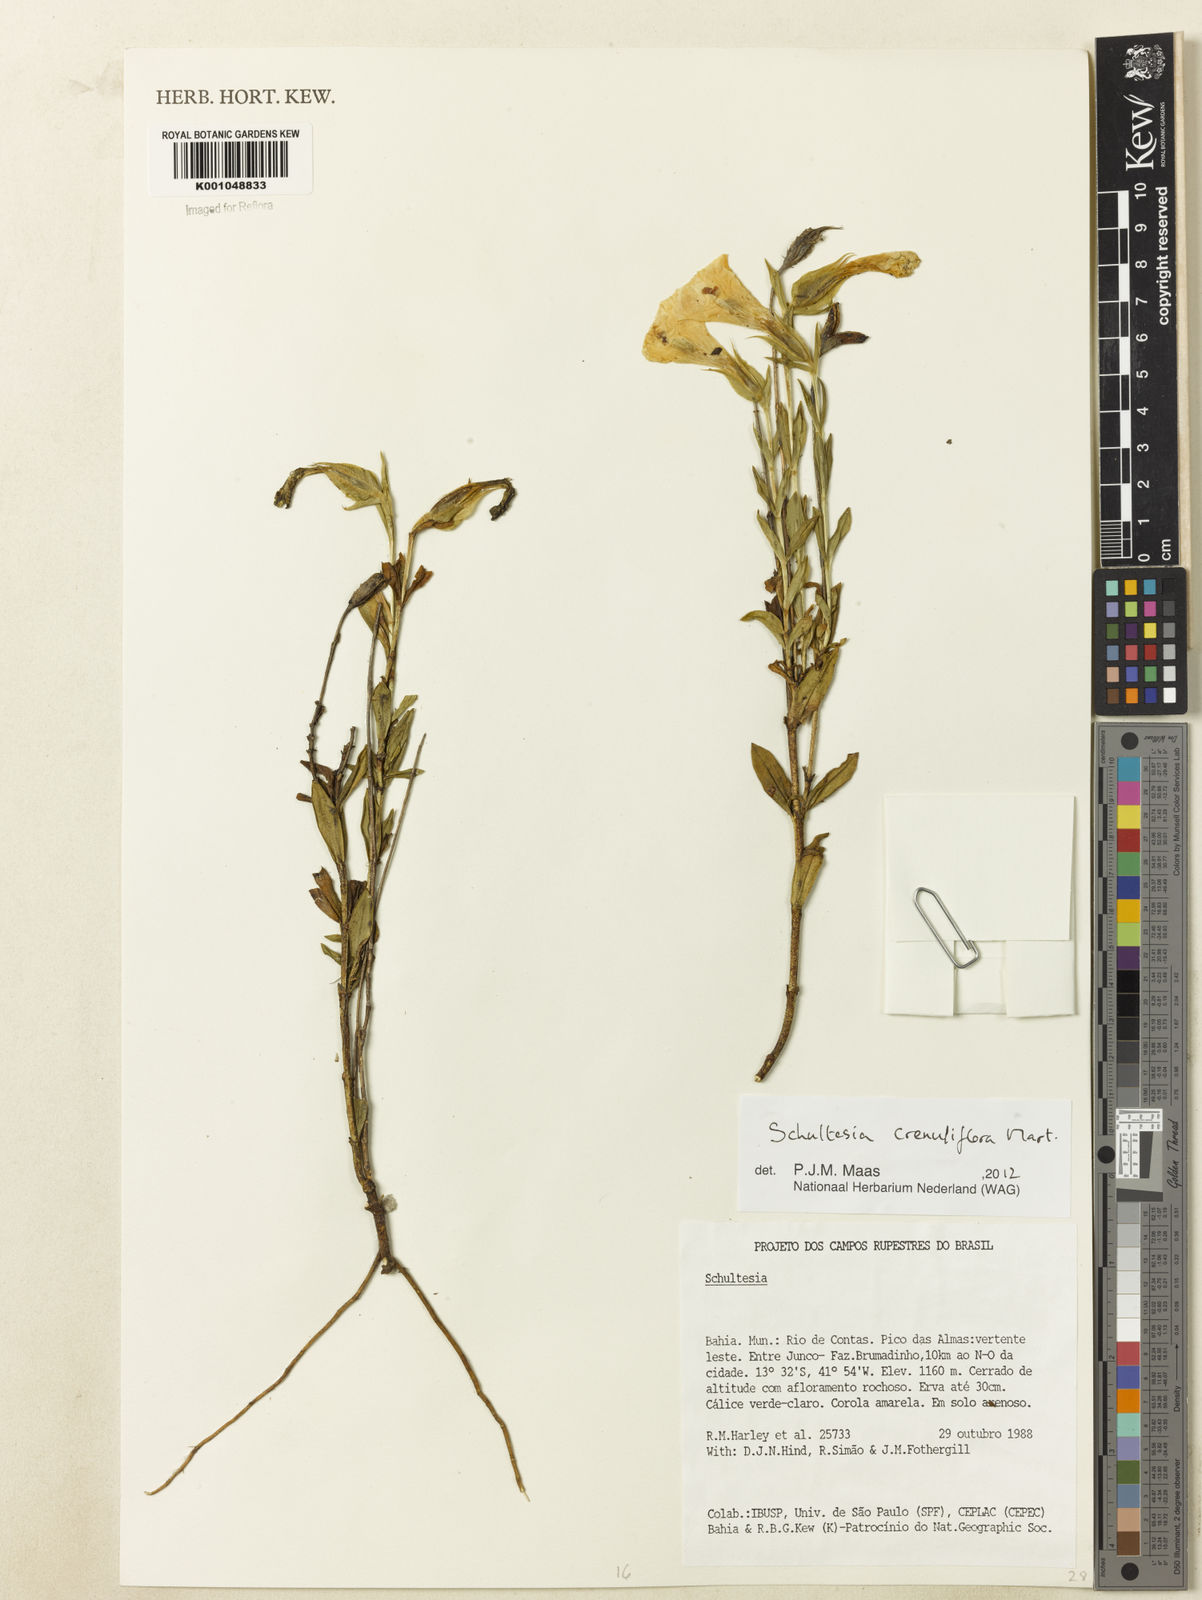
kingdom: Plantae
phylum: Tracheophyta
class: Magnoliopsida
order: Gentianales
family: Gentianaceae
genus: Schultesia
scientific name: Schultesia crenuliflora
